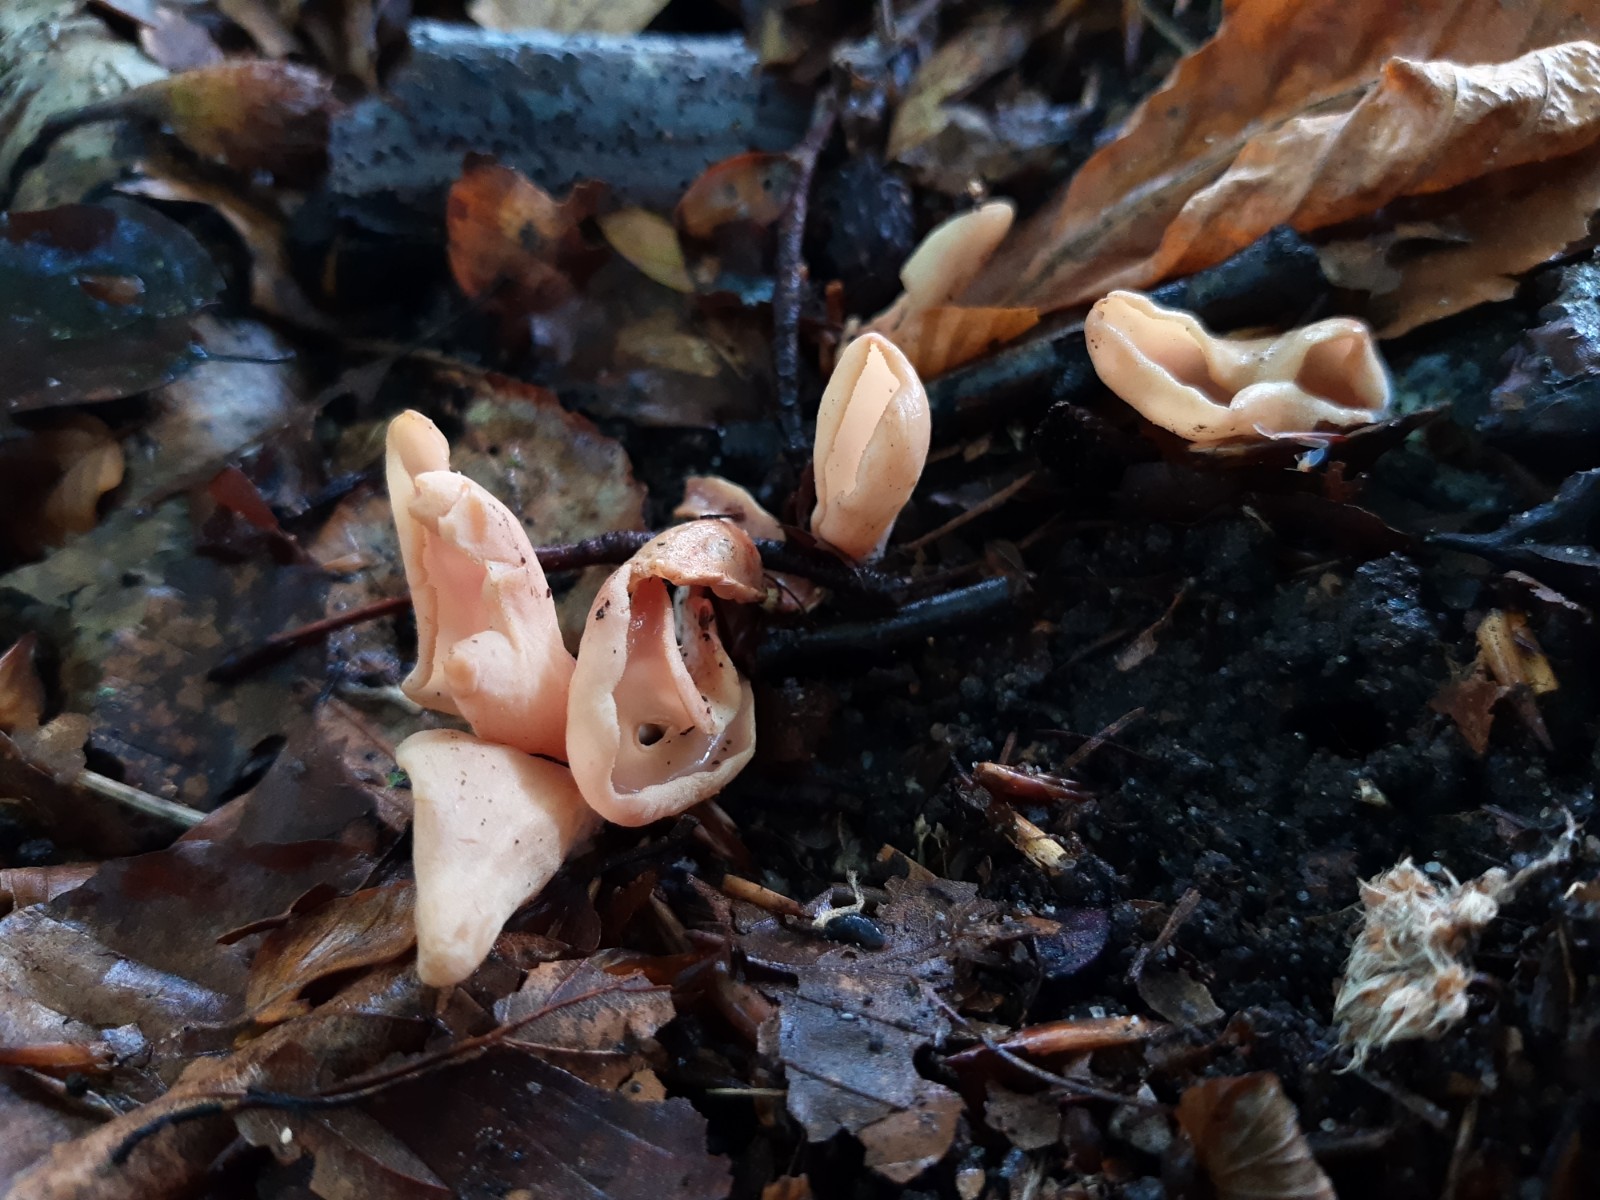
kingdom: Fungi
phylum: Ascomycota
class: Pezizomycetes
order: Pezizales
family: Otideaceae
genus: Otidea
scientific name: Otidea onotica
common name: æsel-ørebæger
